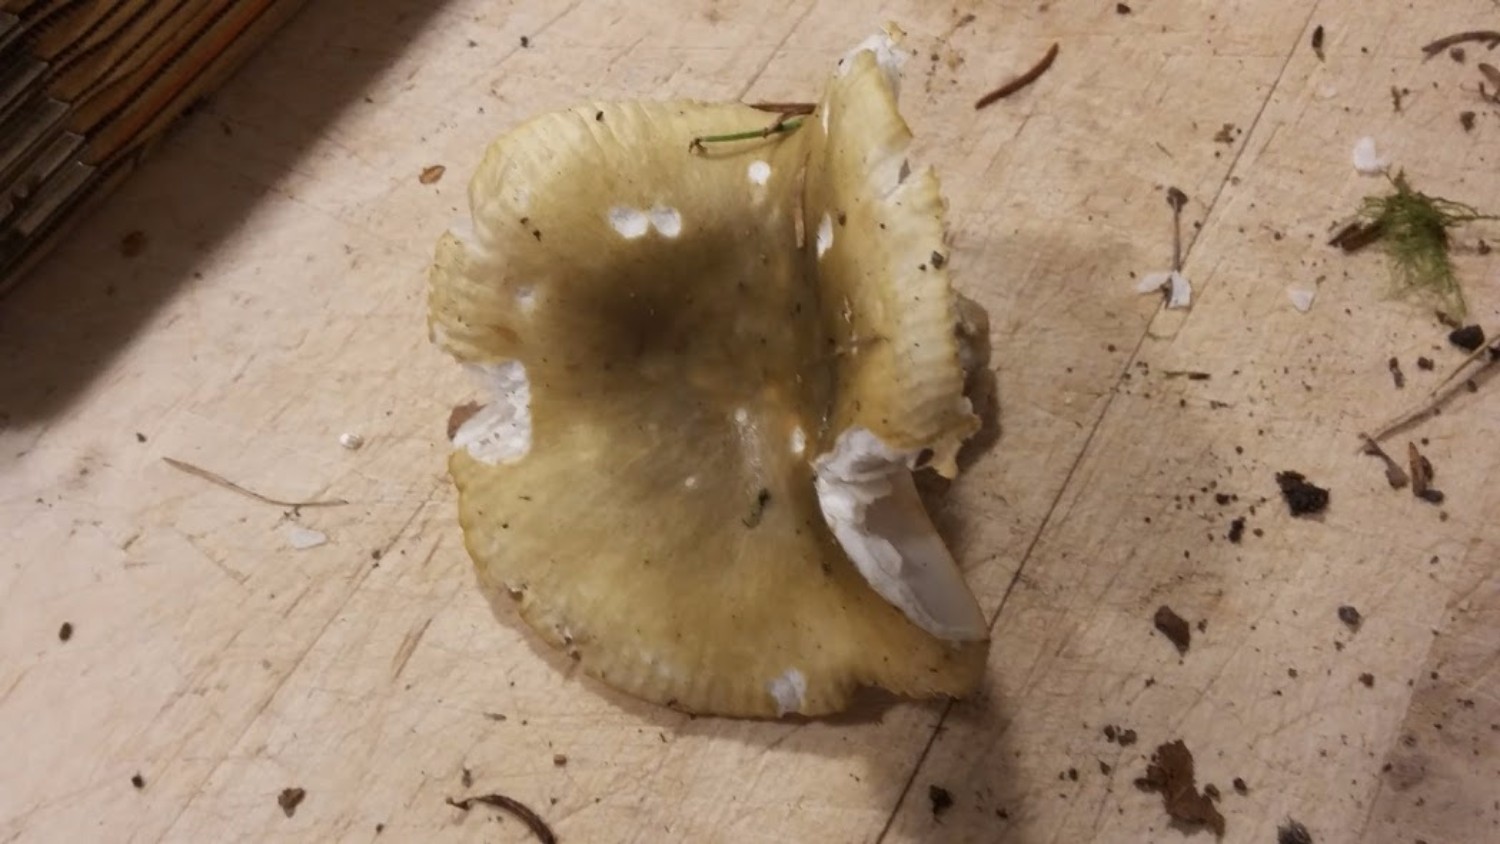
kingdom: Fungi
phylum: Basidiomycota
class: Agaricomycetes
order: Russulales
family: Russulaceae
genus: Russula
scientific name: Russula
